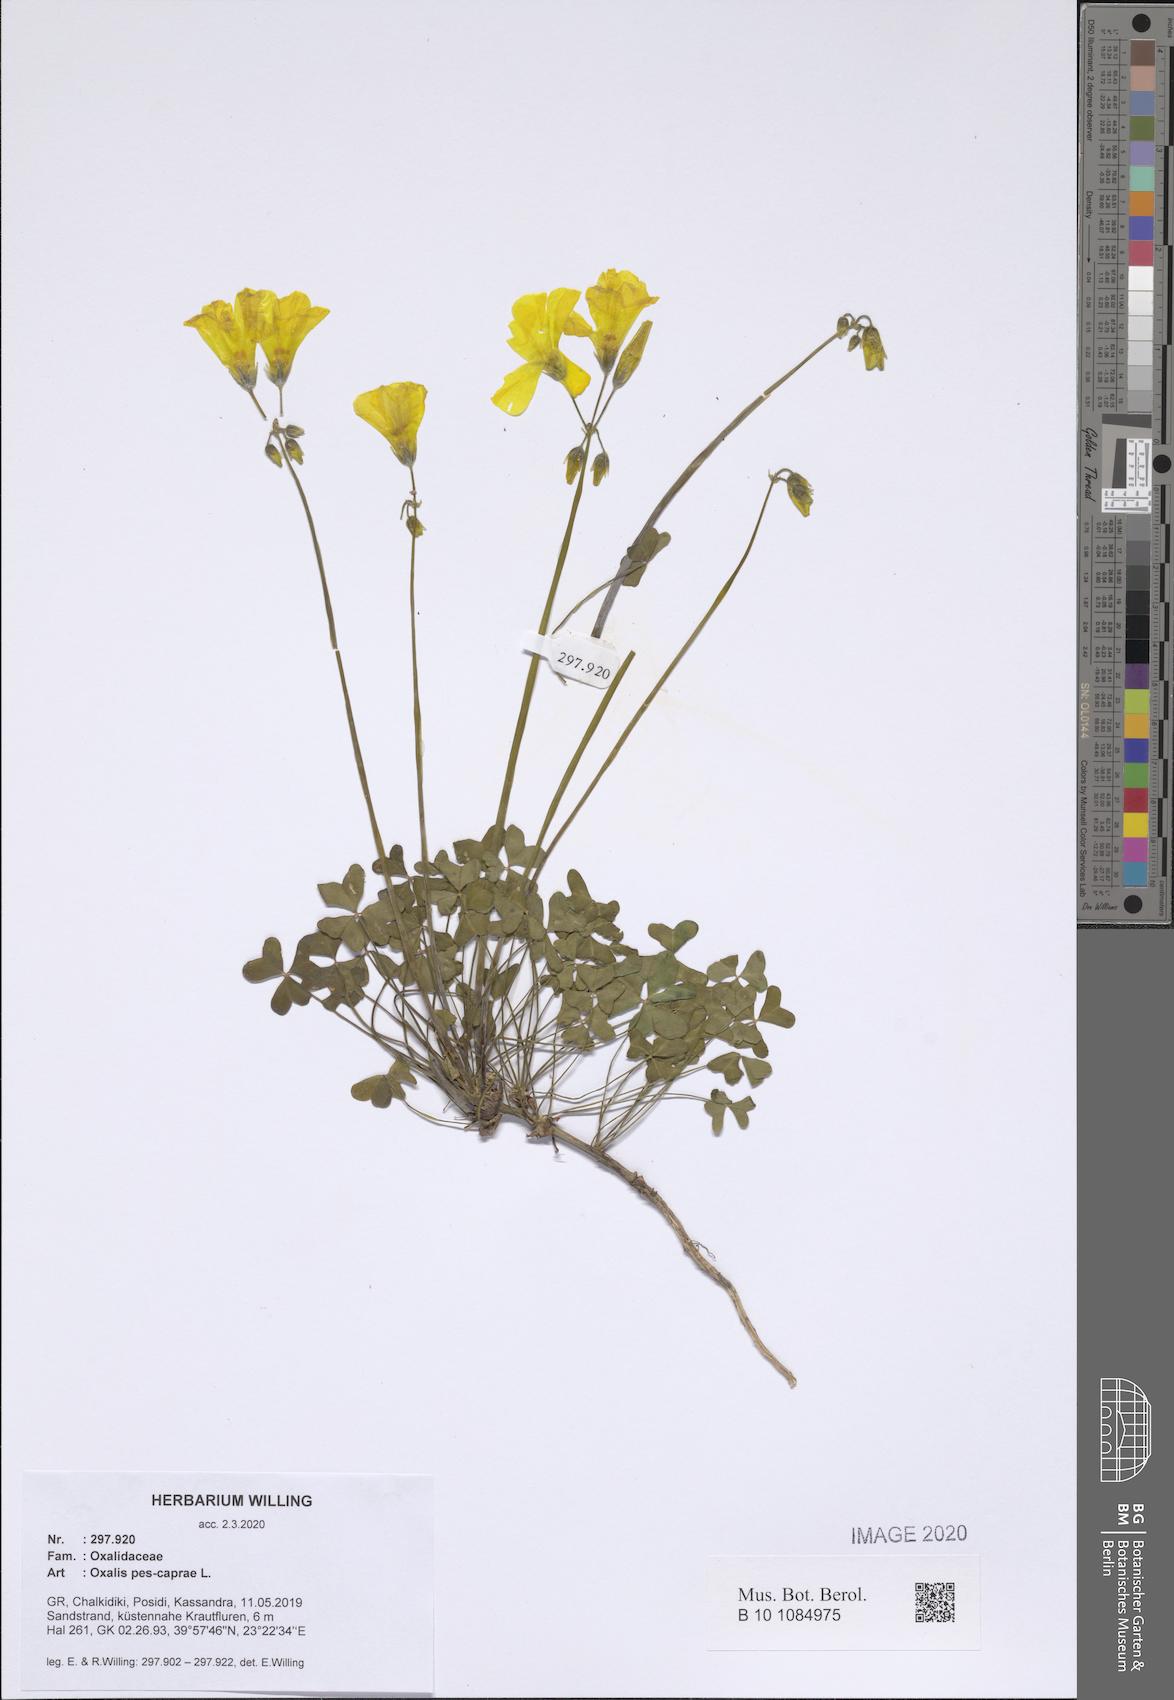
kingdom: Plantae
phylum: Tracheophyta
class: Magnoliopsida
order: Oxalidales
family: Oxalidaceae
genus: Oxalis
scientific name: Oxalis pes-caprae
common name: Bermuda-buttercup
